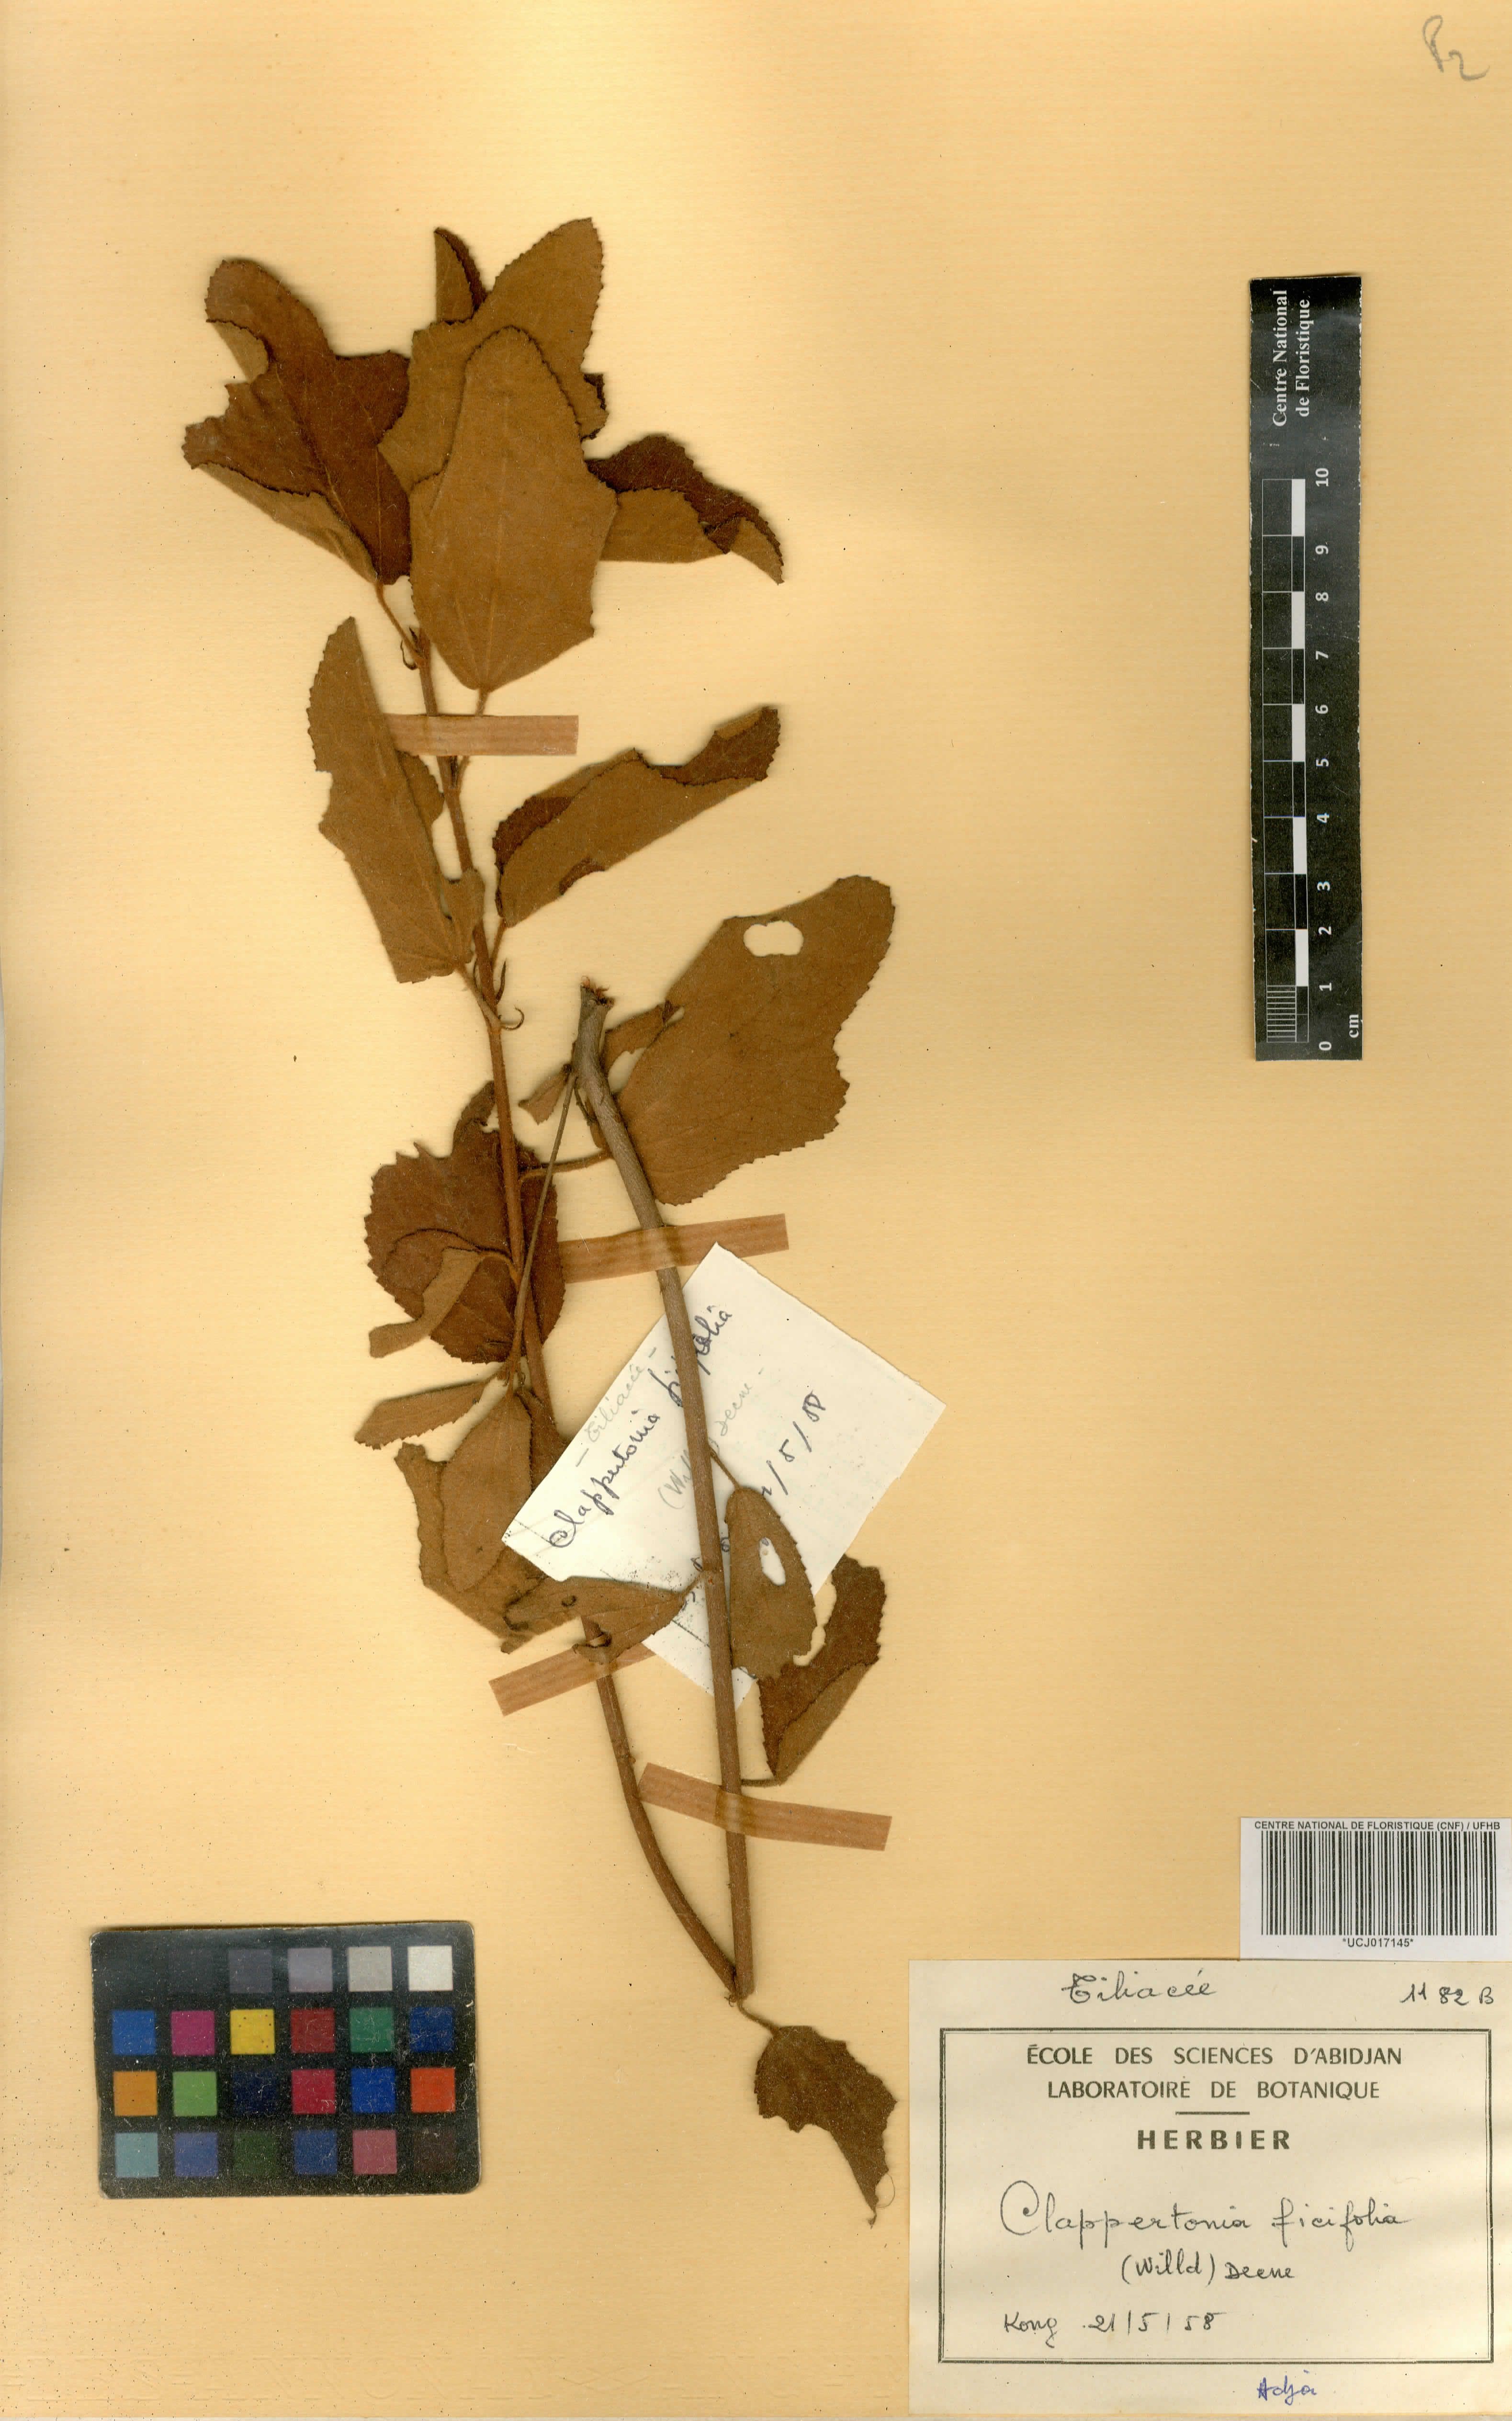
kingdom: Plantae
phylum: Tracheophyta
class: Magnoliopsida
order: Malvales
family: Malvaceae
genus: Clappertonia
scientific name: Clappertonia ficifolia
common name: Bolo-bolo
